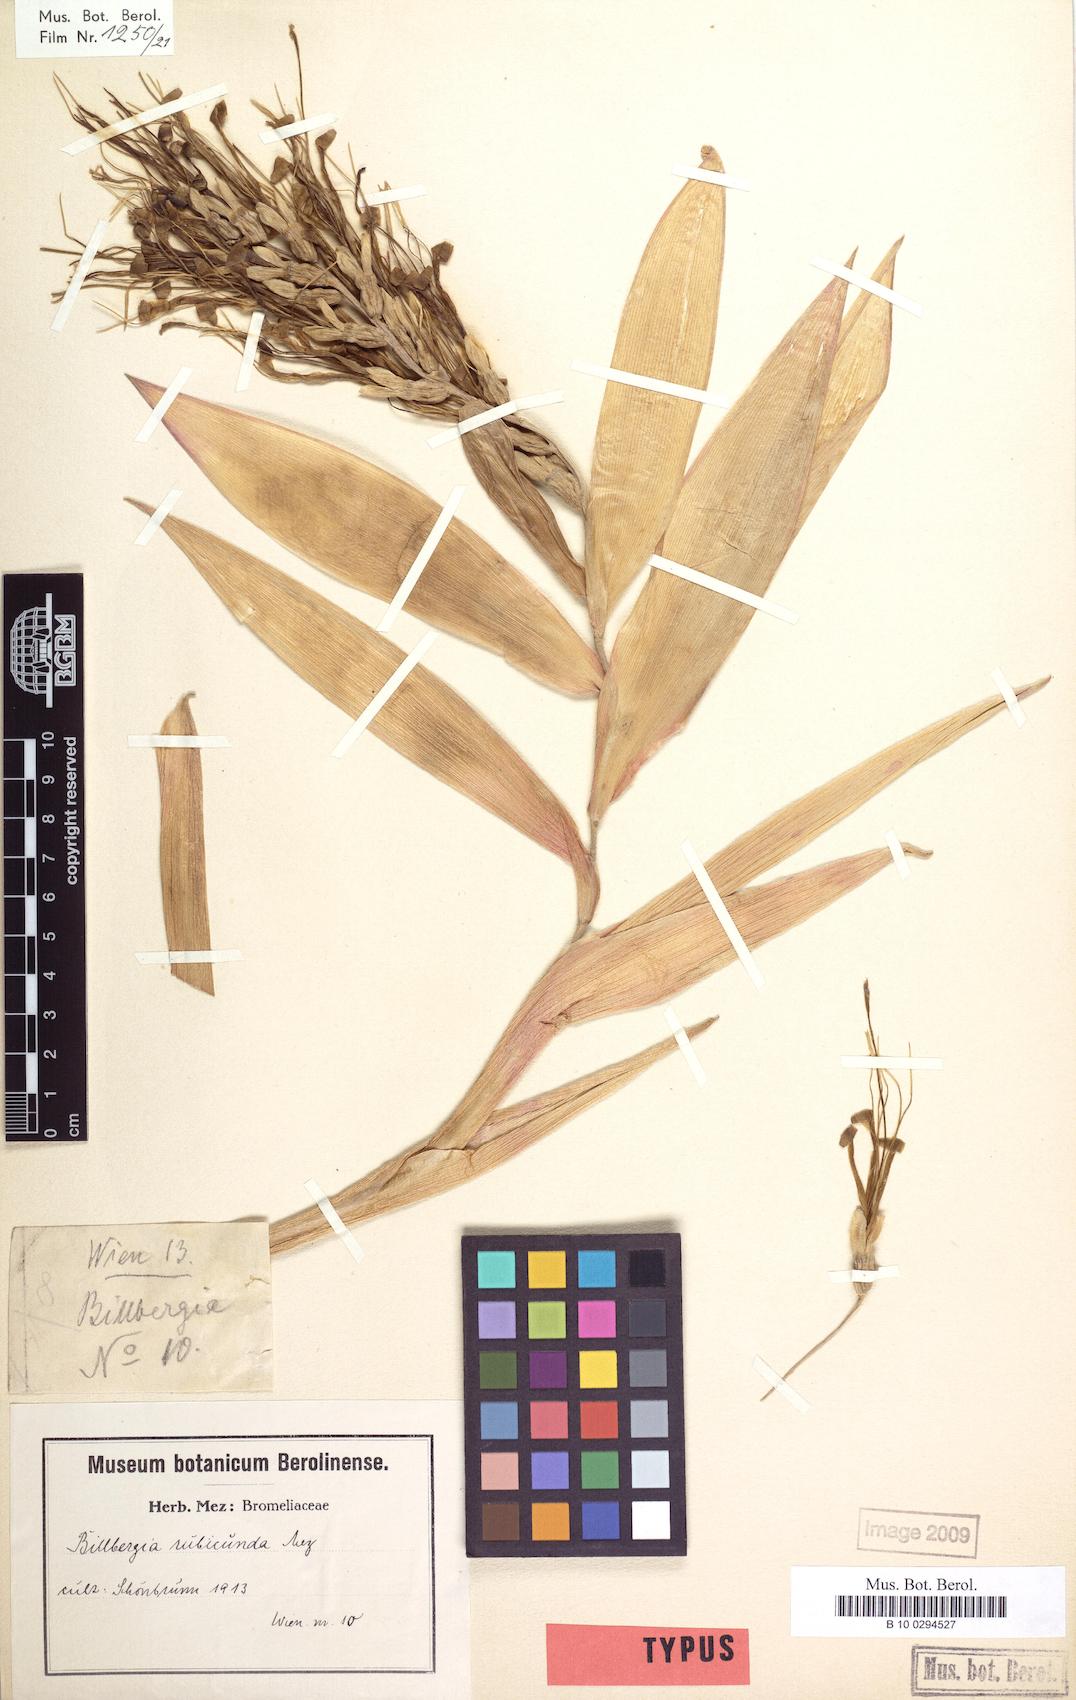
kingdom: Plantae
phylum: Tracheophyta
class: Liliopsida
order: Poales
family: Bromeliaceae
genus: Billbergia
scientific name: Billbergia rubicunda
